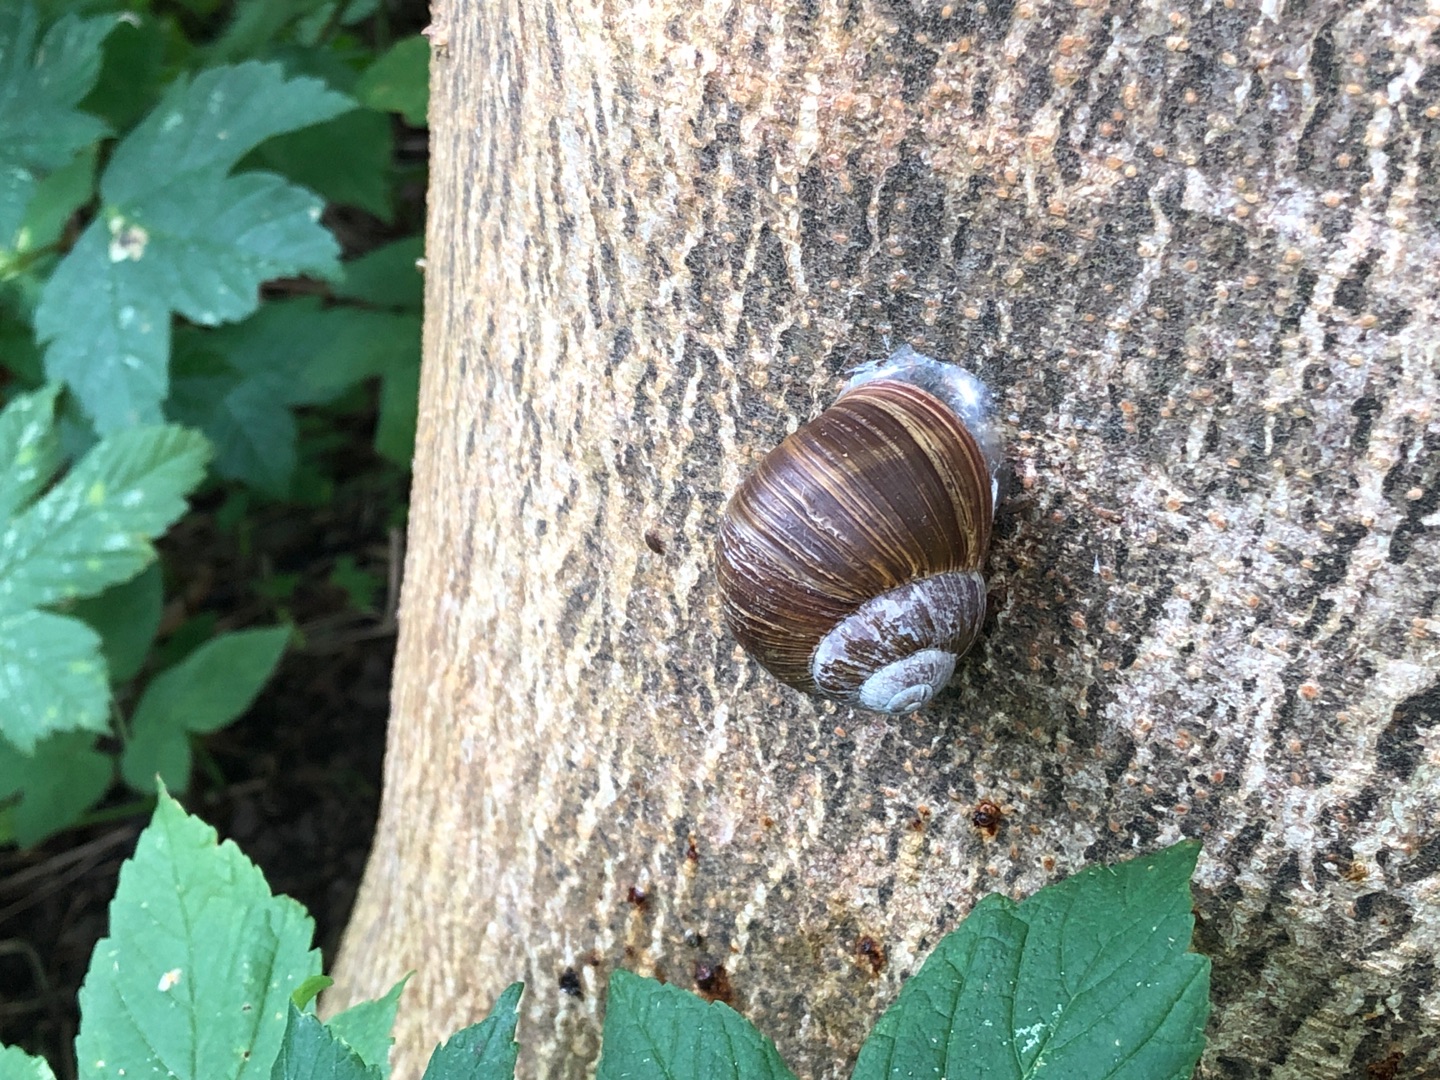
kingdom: Animalia
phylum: Mollusca
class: Gastropoda
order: Stylommatophora
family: Helicidae
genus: Helix
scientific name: Helix pomatia
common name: Vinbjergsnegl
